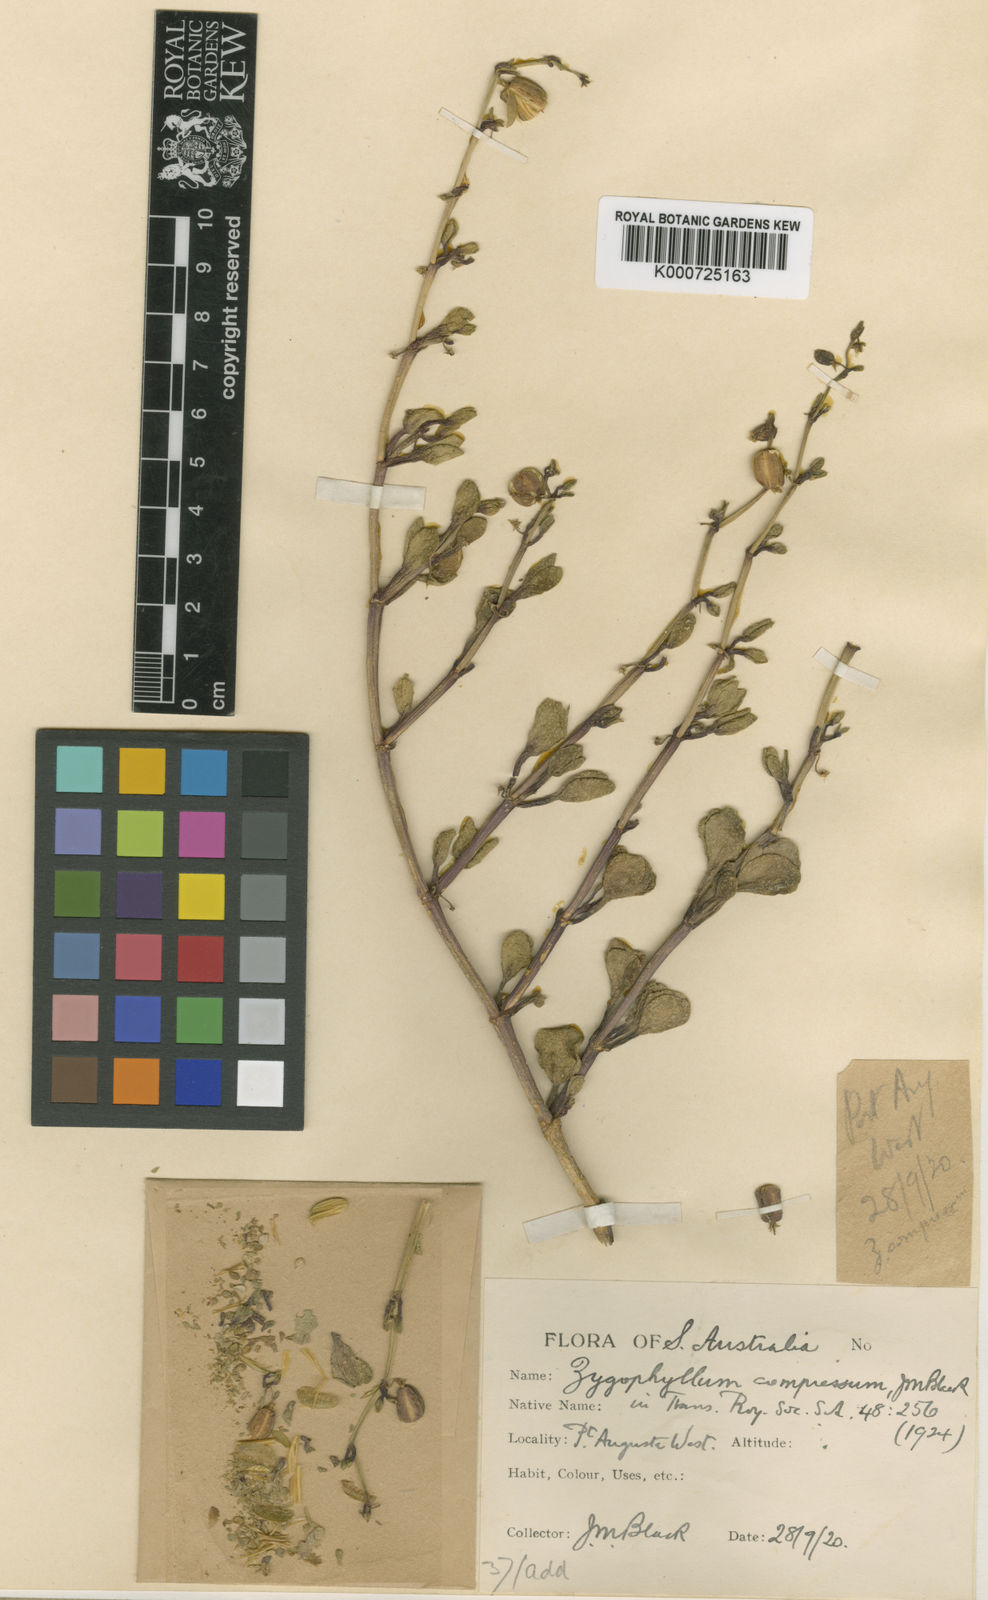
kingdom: Plantae
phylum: Tracheophyta
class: Magnoliopsida
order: Zygophyllales
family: Zygophyllaceae
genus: Roepera
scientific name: Roepera compressa
